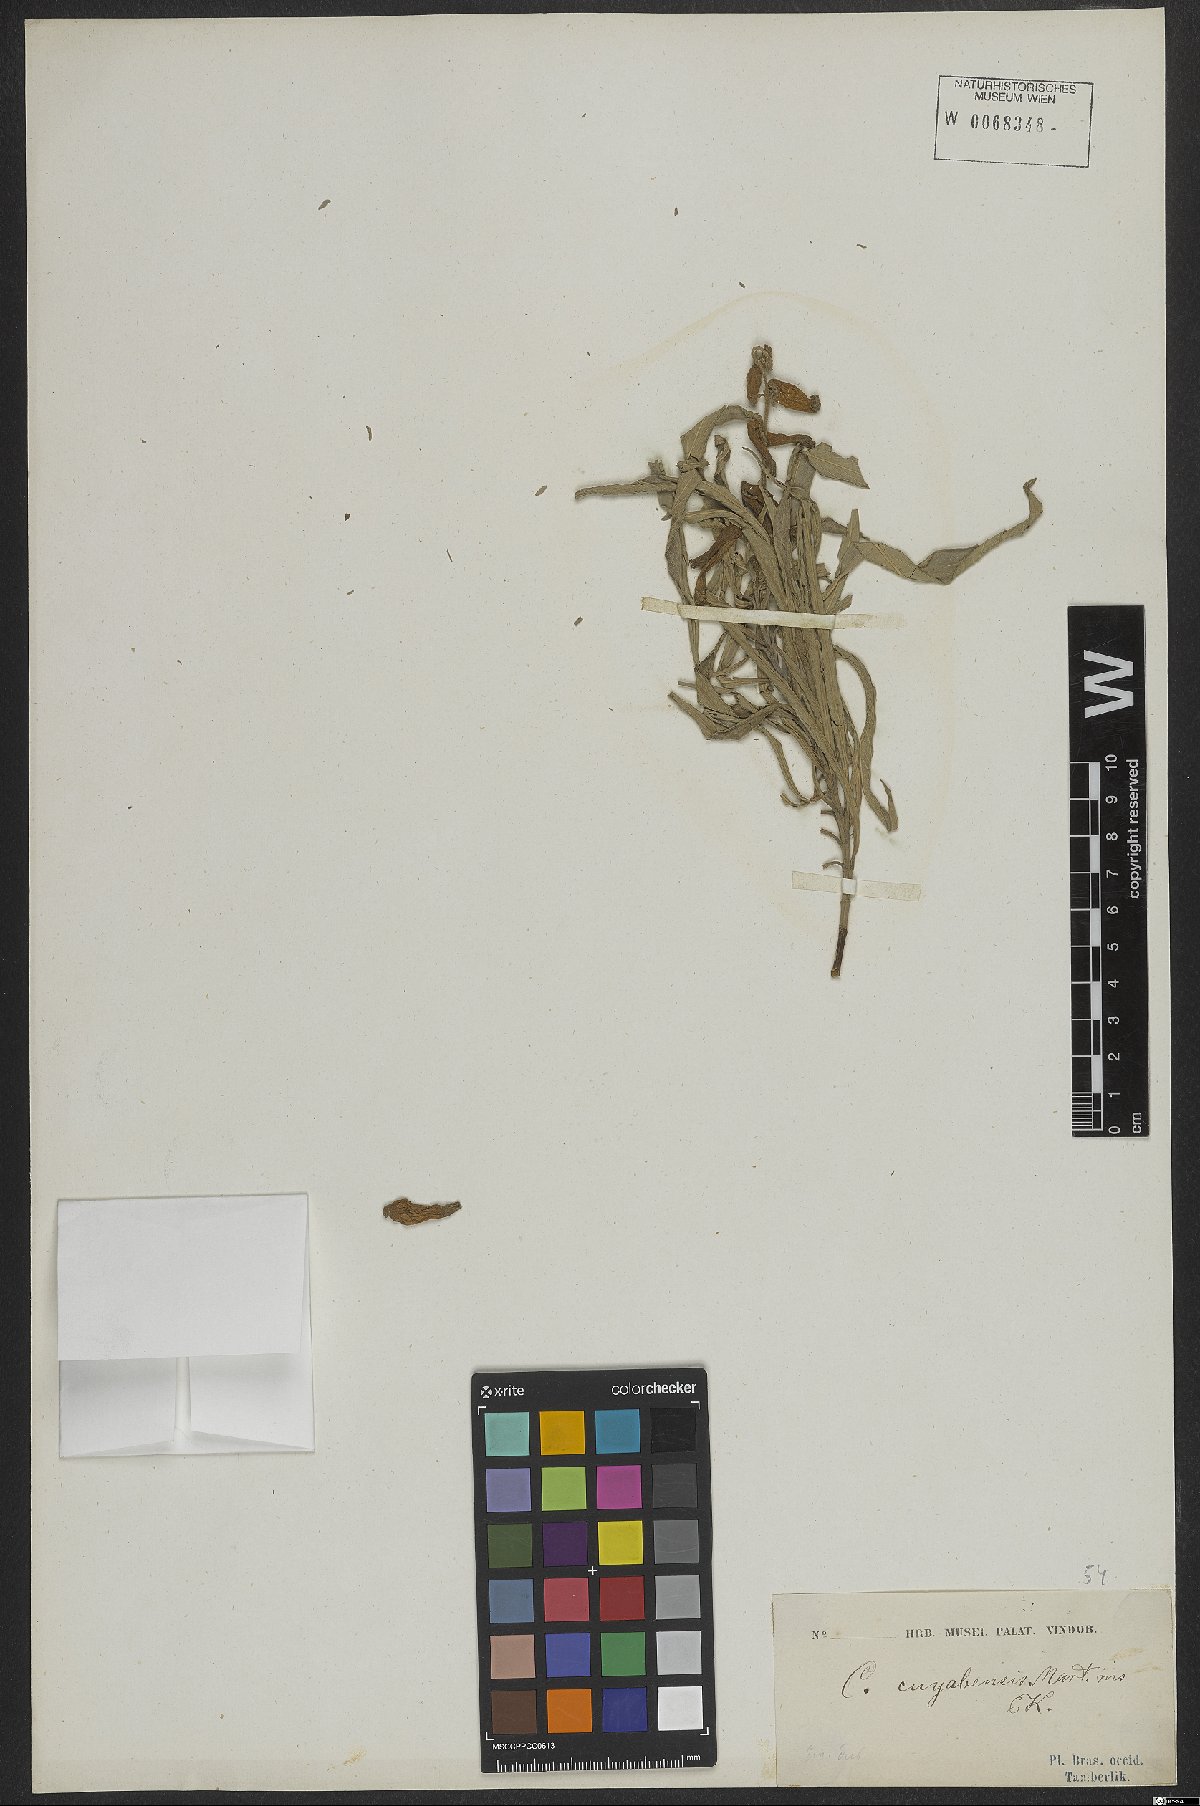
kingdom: Plantae
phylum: Tracheophyta
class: Magnoliopsida
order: Myrtales
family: Lythraceae
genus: Cuphea
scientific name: Cuphea cuiabensis
